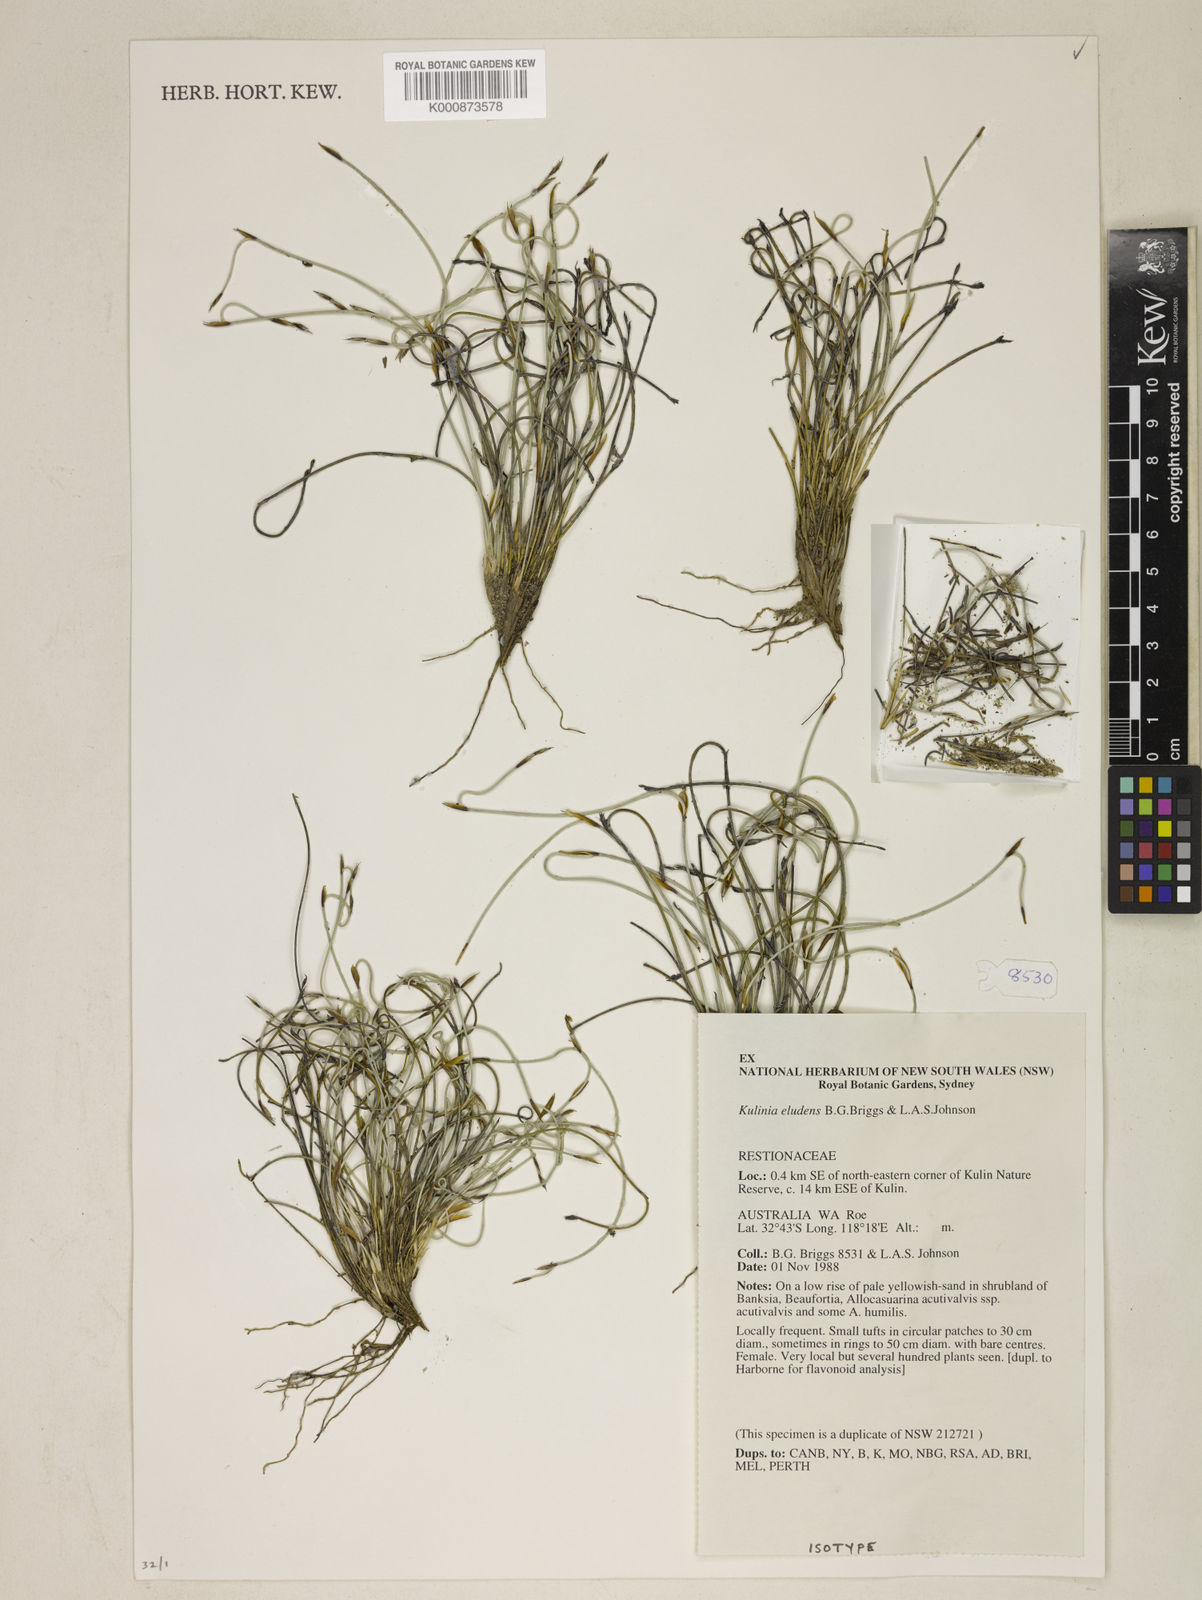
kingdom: Plantae
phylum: Tracheophyta
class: Liliopsida
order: Poales
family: Restionaceae
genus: Desmocladus
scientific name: Desmocladus eludens
